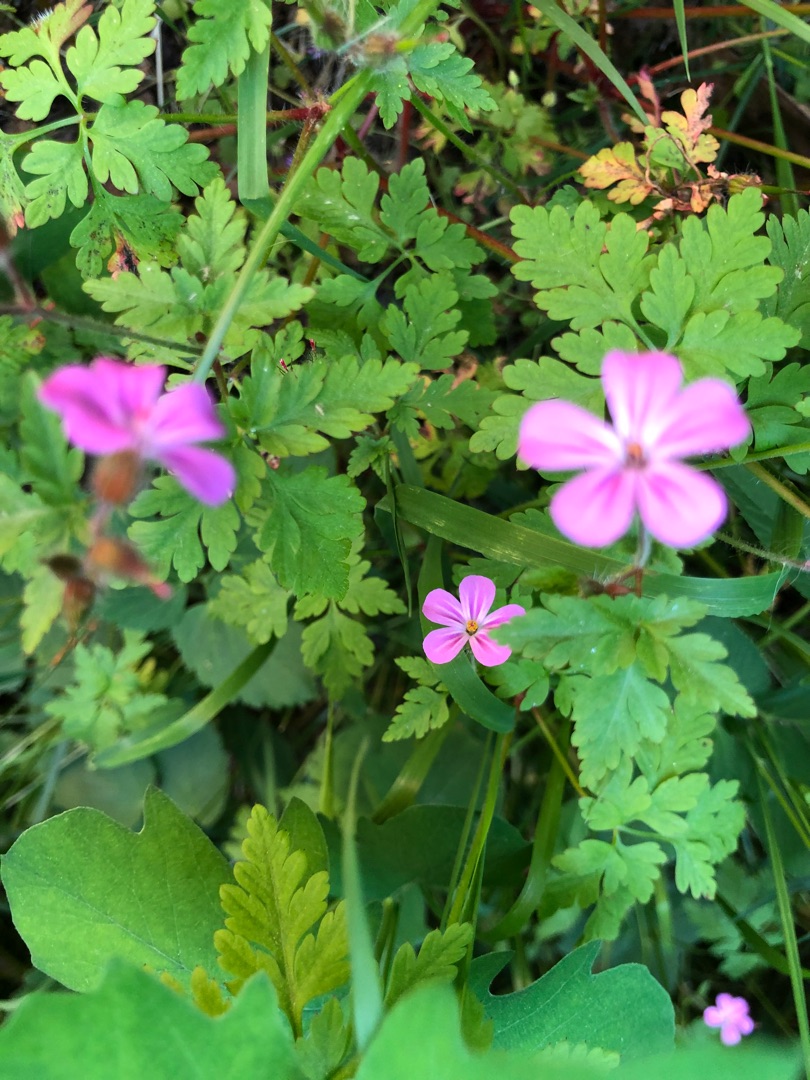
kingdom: Plantae
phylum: Tracheophyta
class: Magnoliopsida
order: Geraniales
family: Geraniaceae
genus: Geranium
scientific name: Geranium robertianum
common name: Stinkende storkenæb
